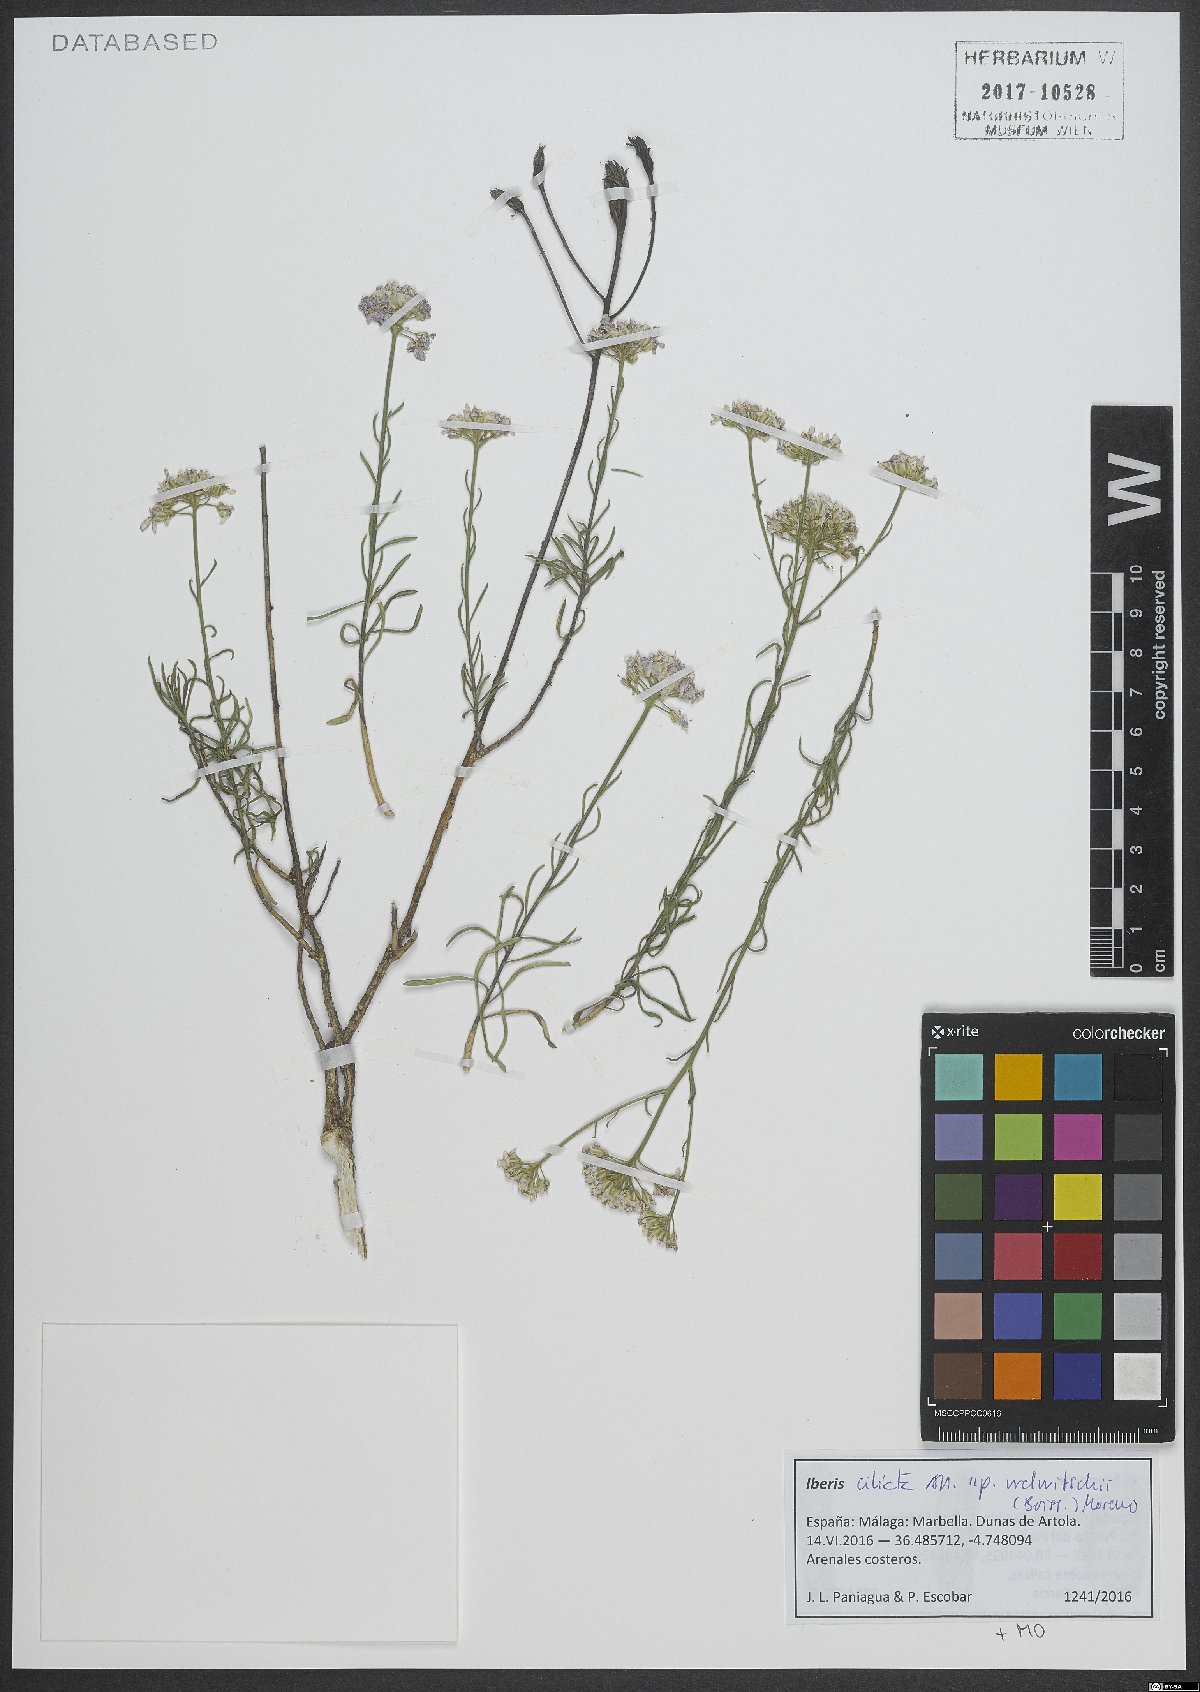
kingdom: Plantae
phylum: Tracheophyta
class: Magnoliopsida
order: Brassicales
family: Brassicaceae
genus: Iberis
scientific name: Iberis ciliata
